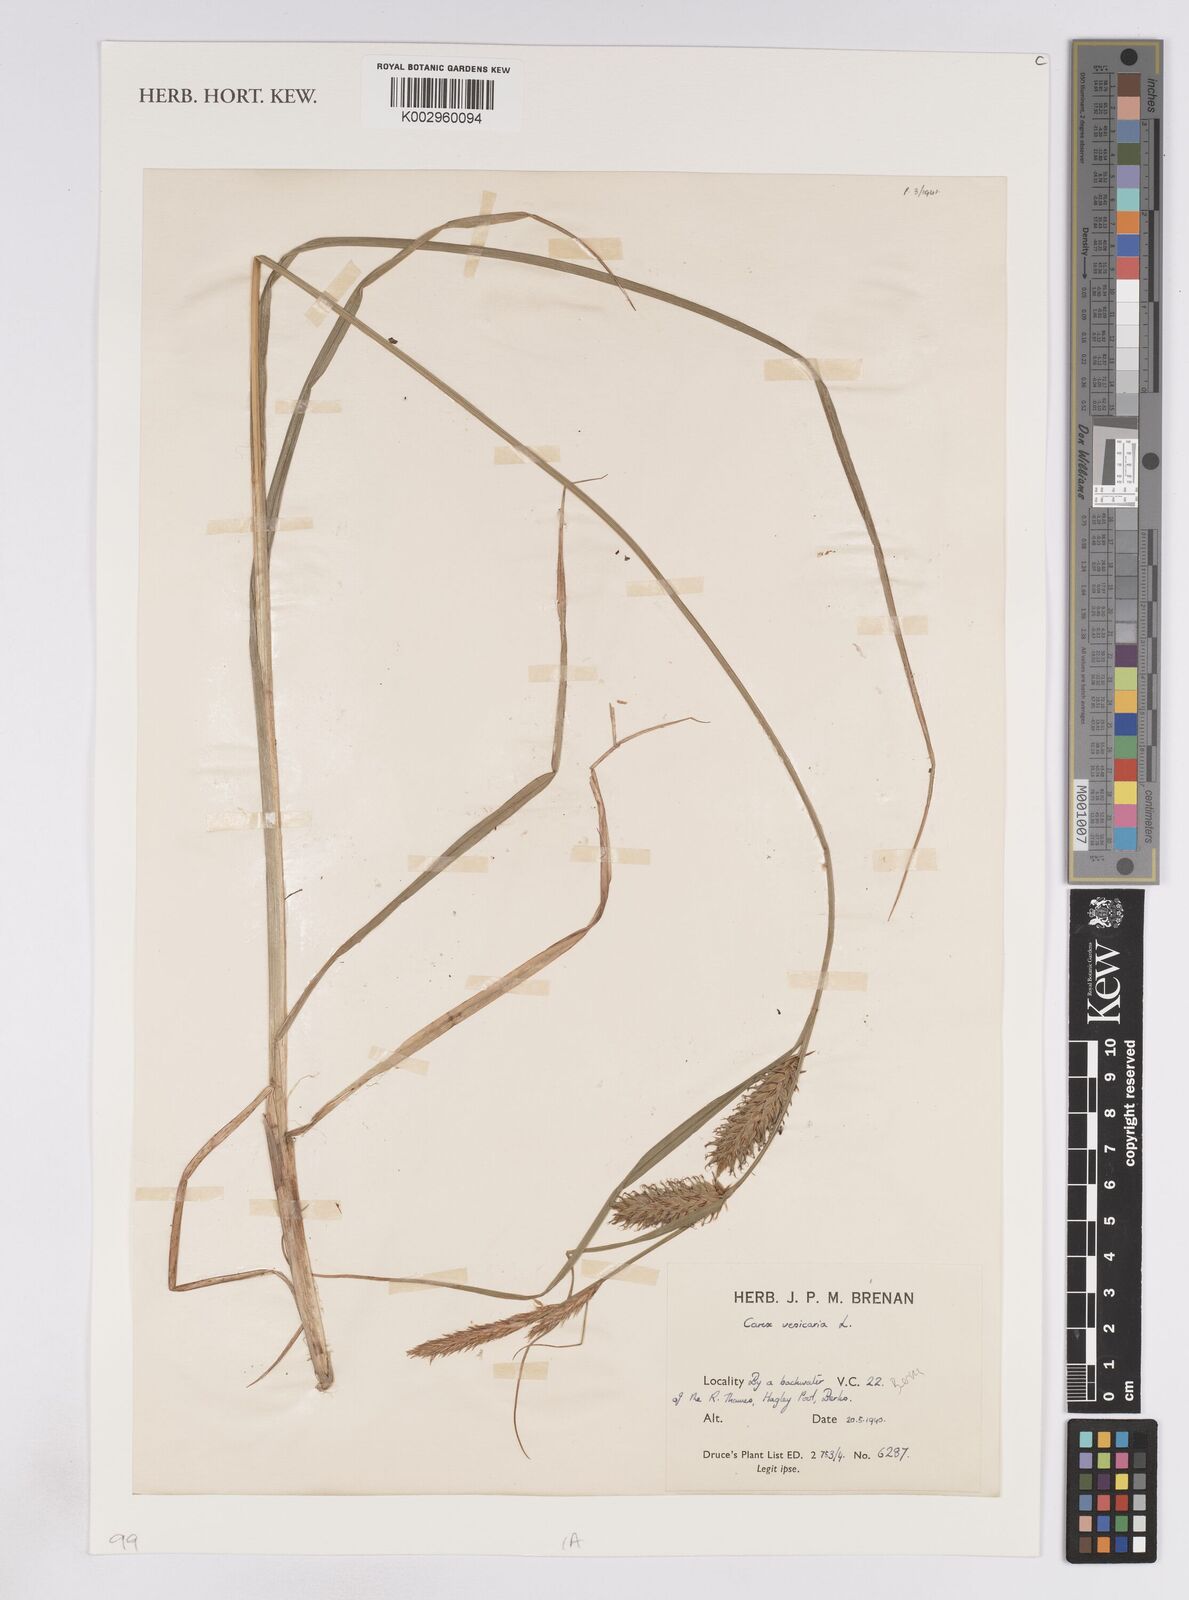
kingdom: Plantae
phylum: Tracheophyta
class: Liliopsida
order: Poales
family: Cyperaceae
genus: Carex
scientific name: Carex vesicaria
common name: Bladder-sedge
